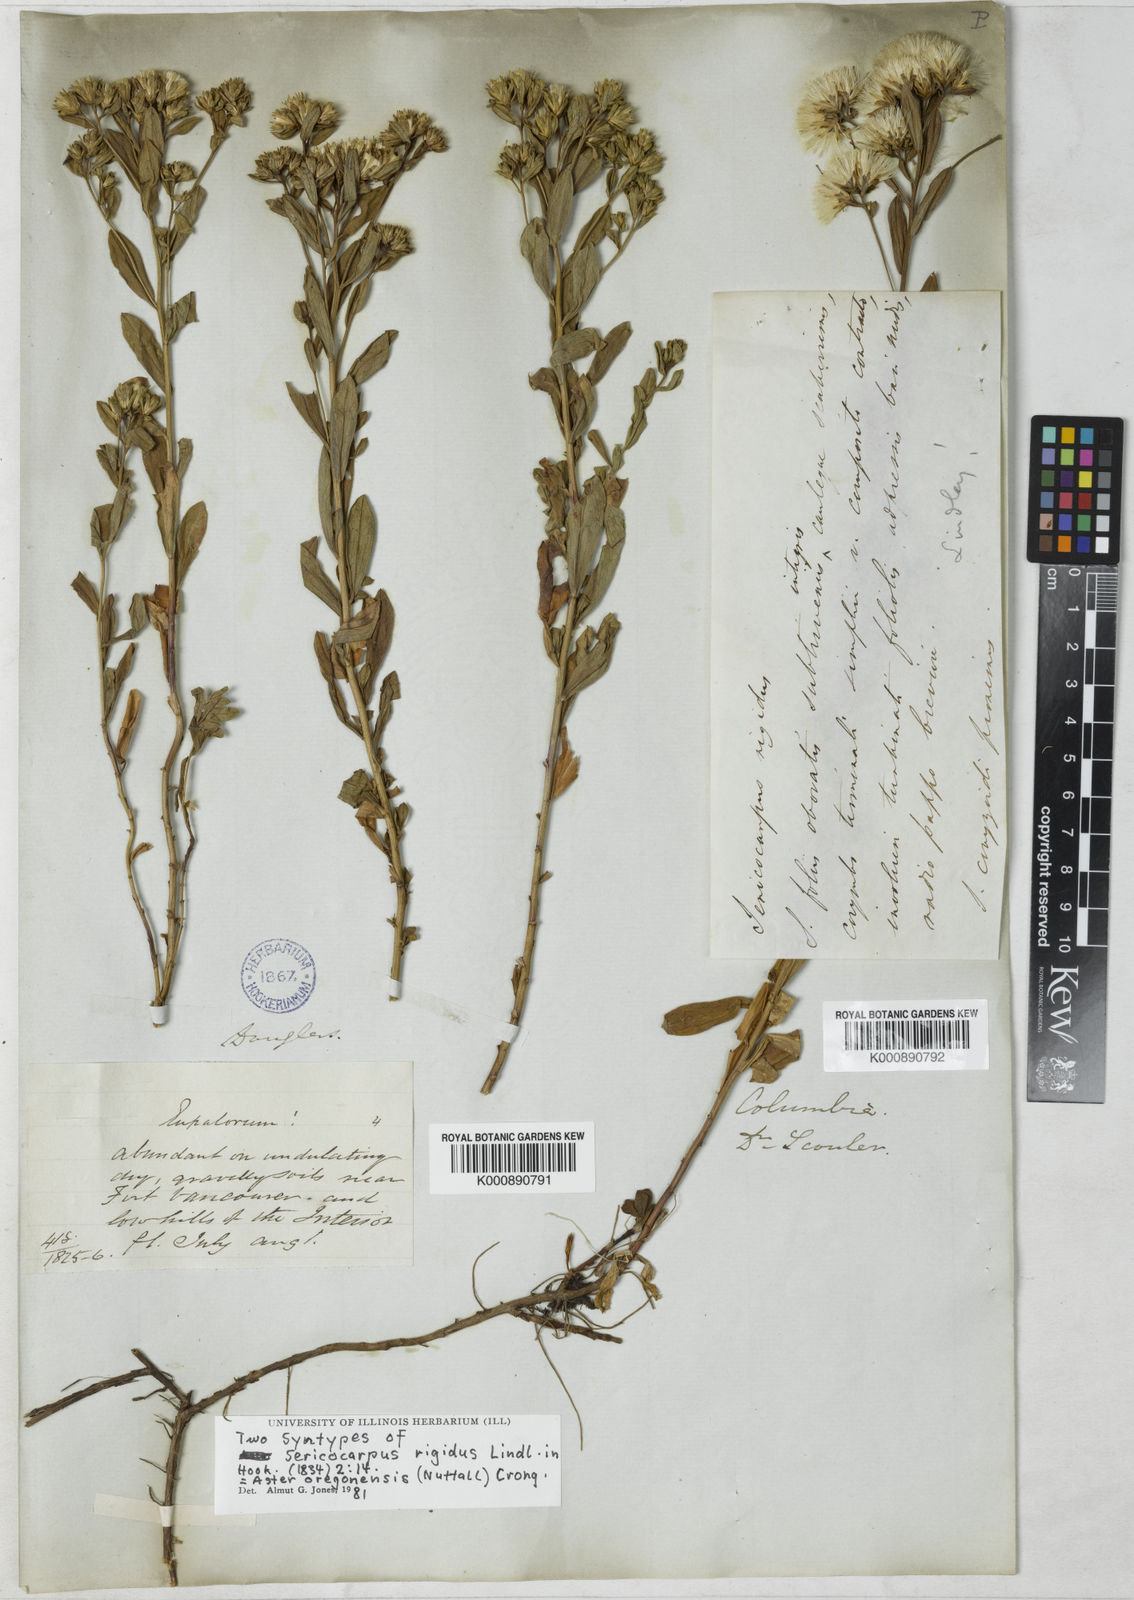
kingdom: Plantae
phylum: Tracheophyta
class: Magnoliopsida
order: Asterales
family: Asteraceae
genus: Sericocarpus
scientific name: Sericocarpus rigidus
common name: Columbia white-top aster
